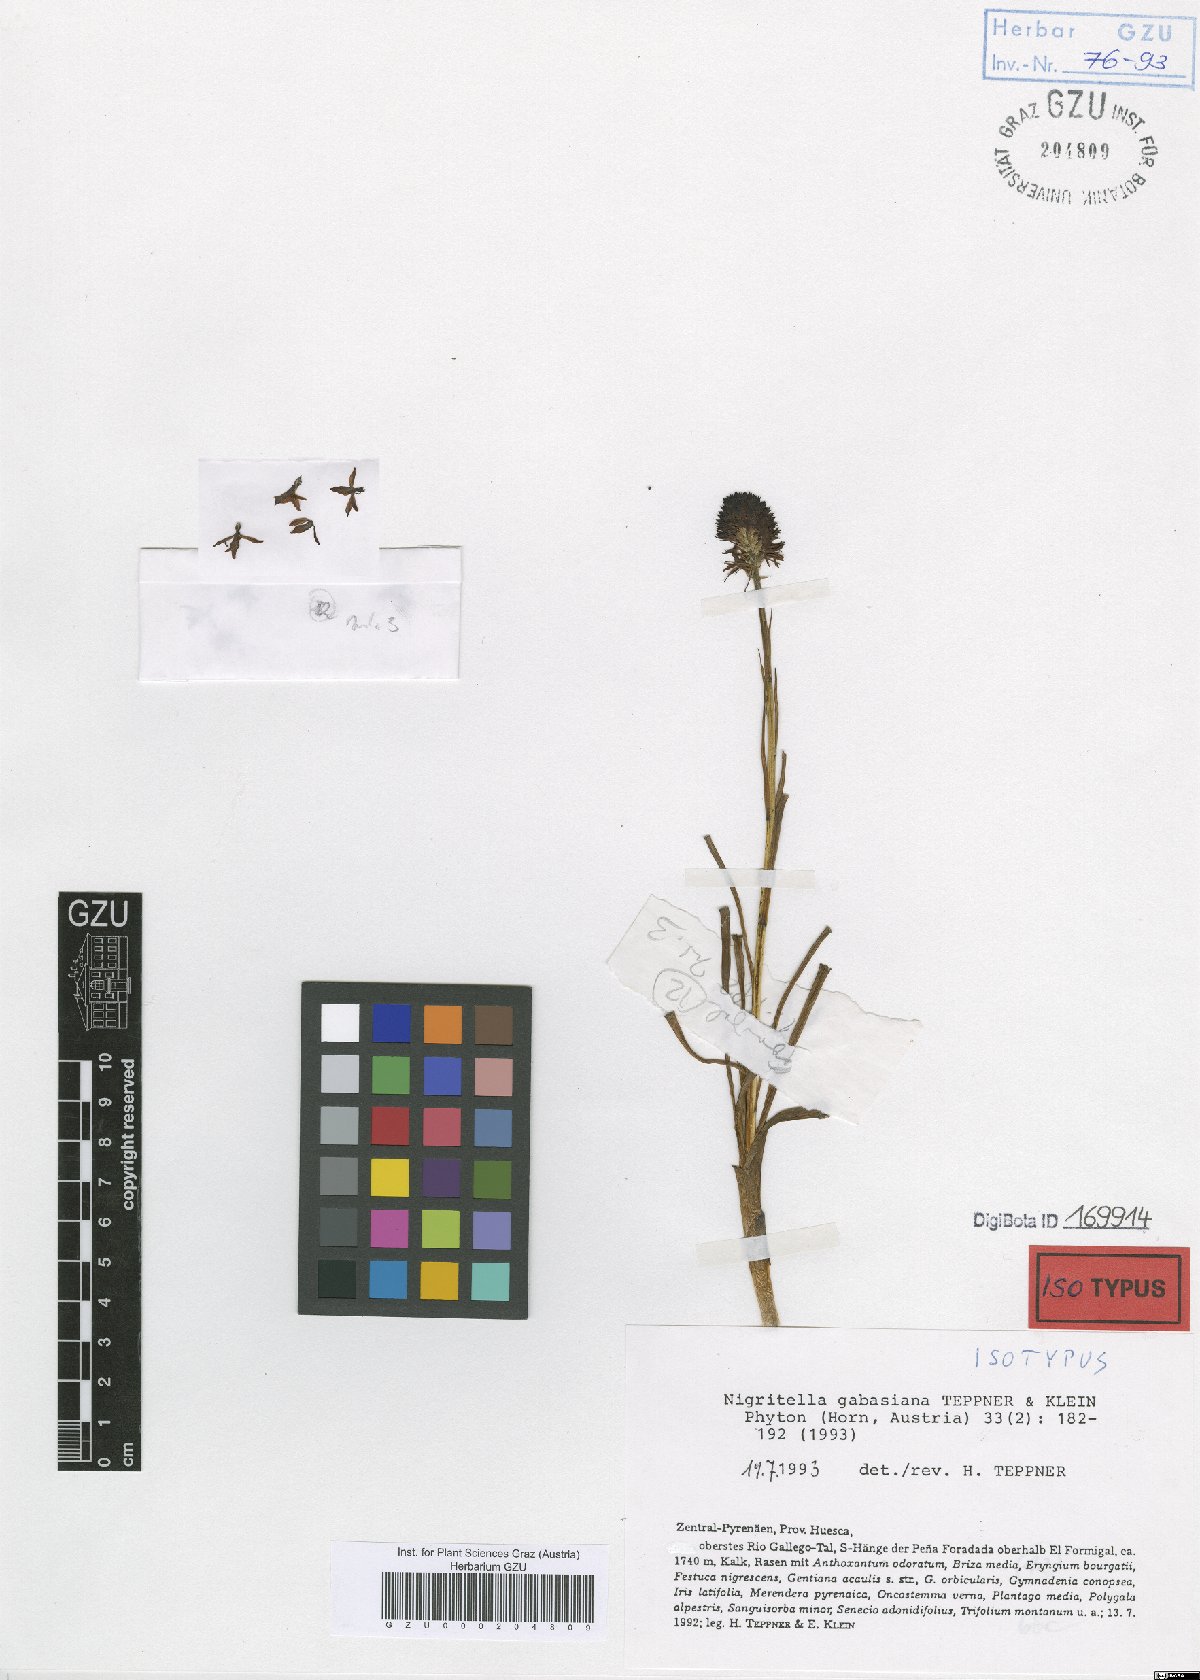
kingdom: Plantae
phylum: Tracheophyta
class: Liliopsida
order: Asparagales
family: Orchidaceae
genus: Gymnadenia
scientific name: Gymnadenia gabasiana
